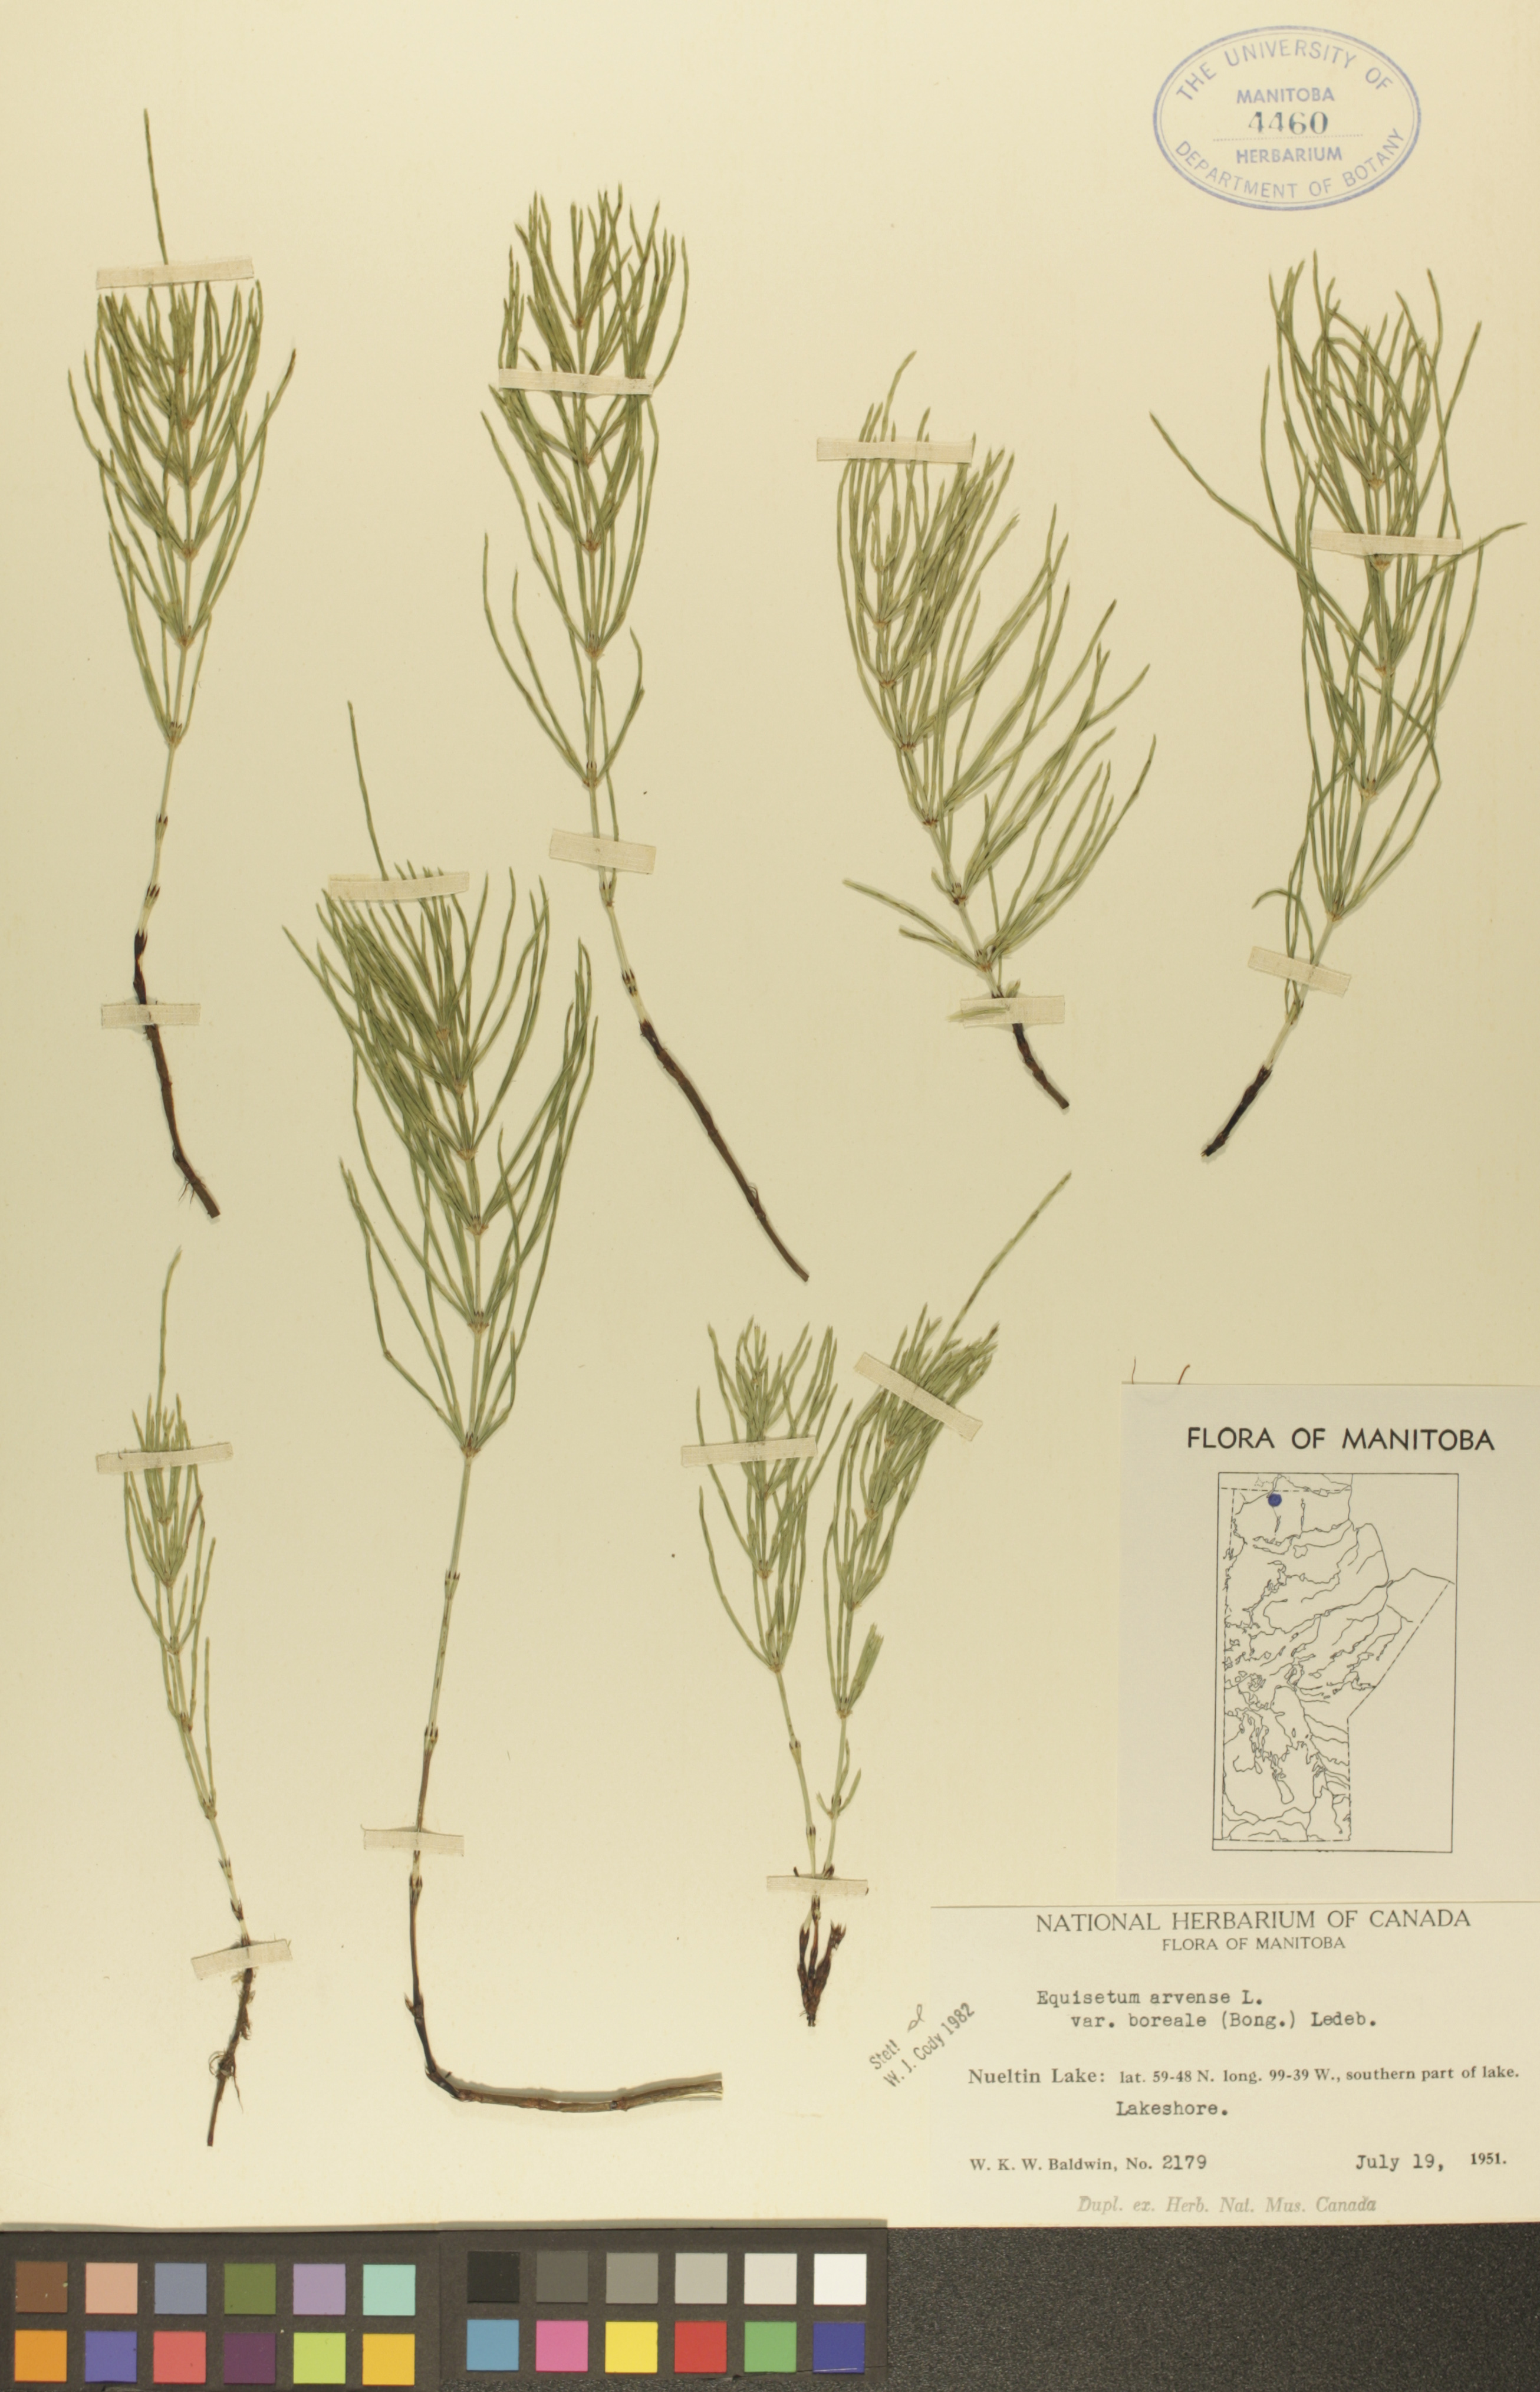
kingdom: Plantae
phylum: Tracheophyta
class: Polypodiopsida
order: Equisetales
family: Equisetaceae
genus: Equisetum
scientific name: Equisetum arvense
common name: Field horsetail
